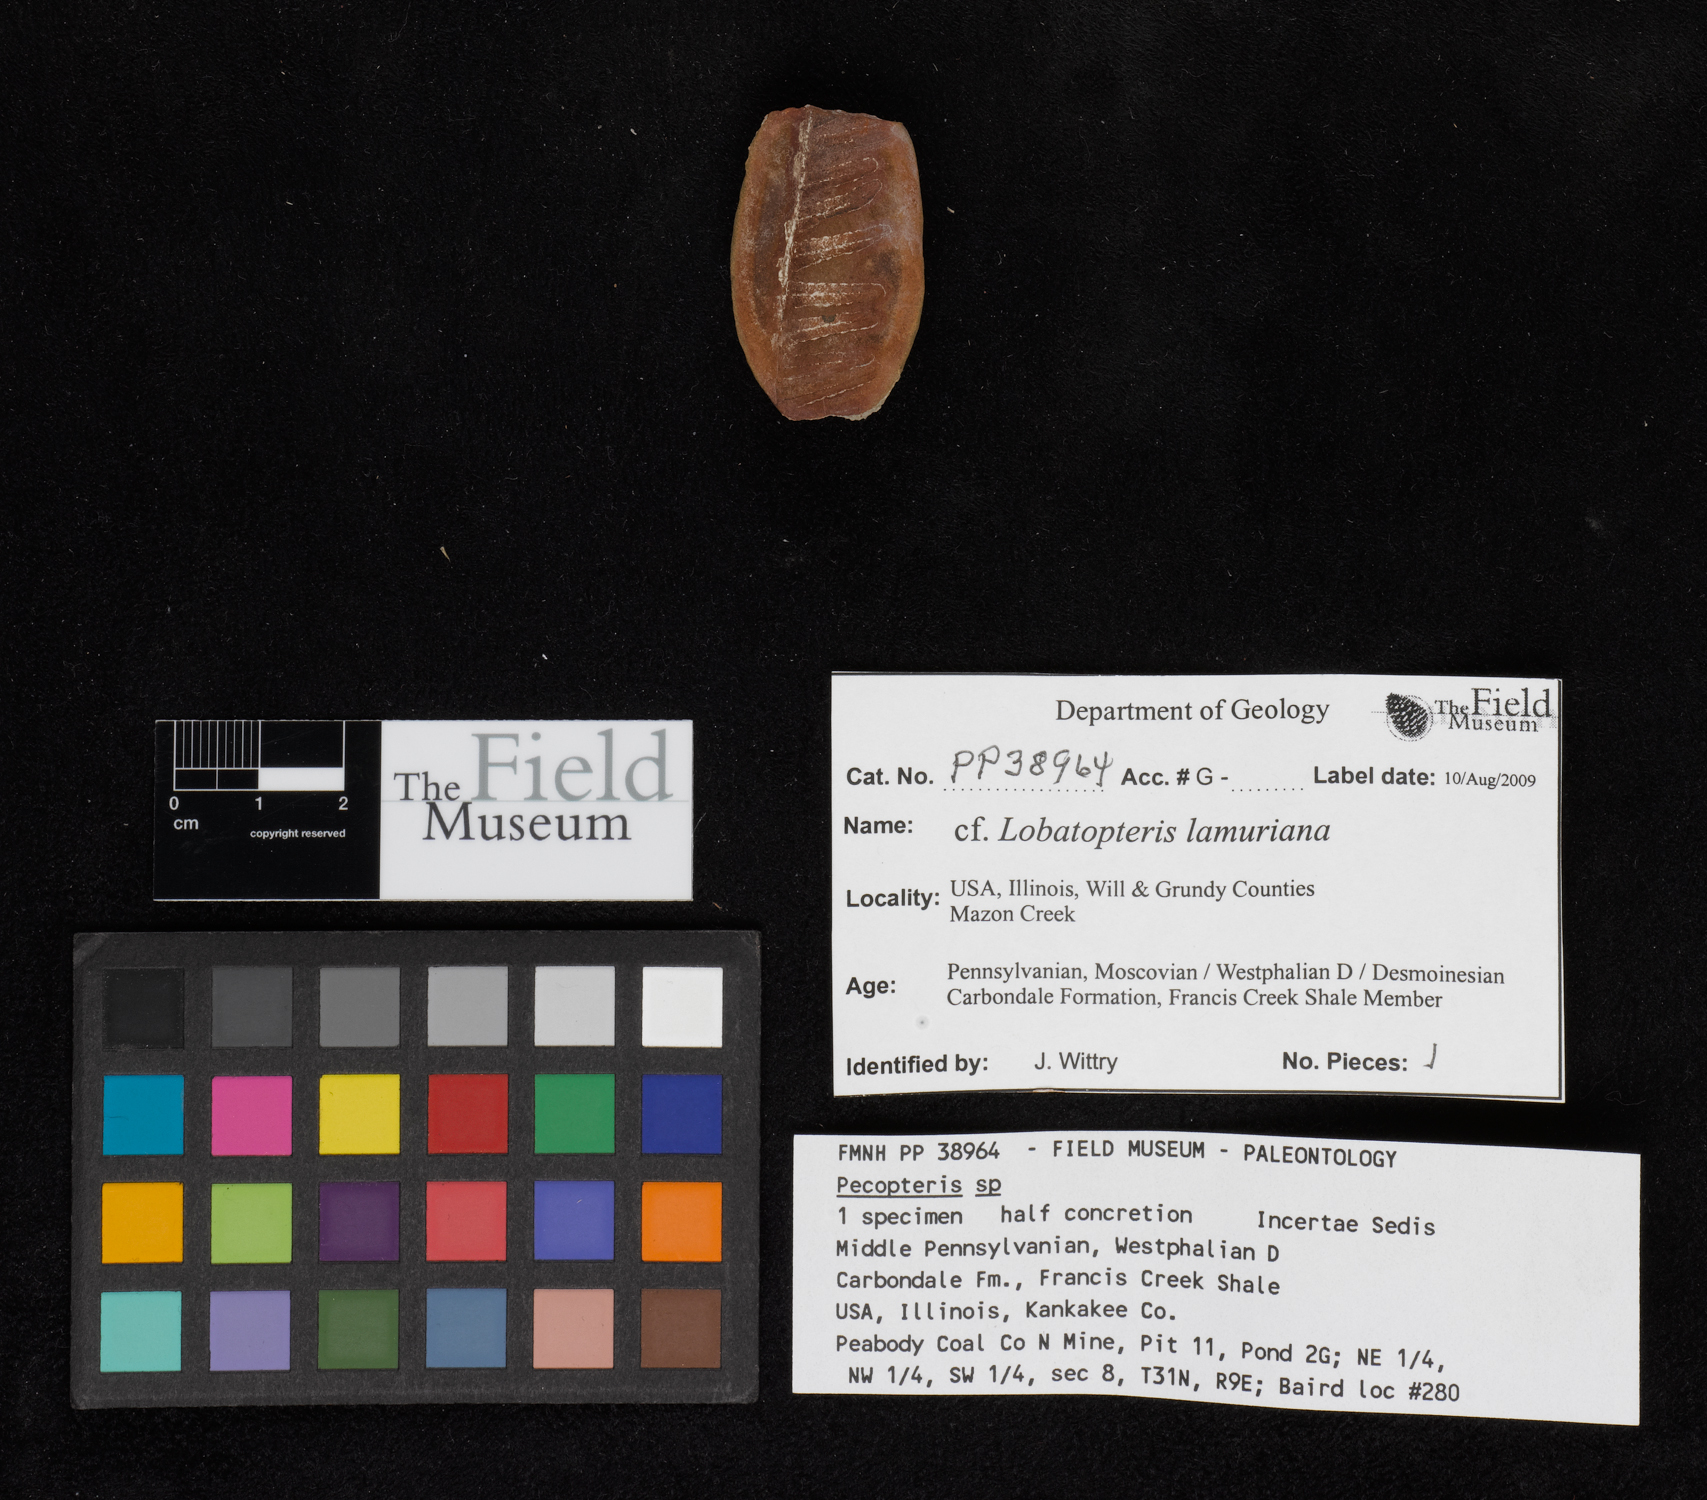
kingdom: Plantae
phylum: Tracheophyta
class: Polypodiopsida
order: Marattiales
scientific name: Marattiales
